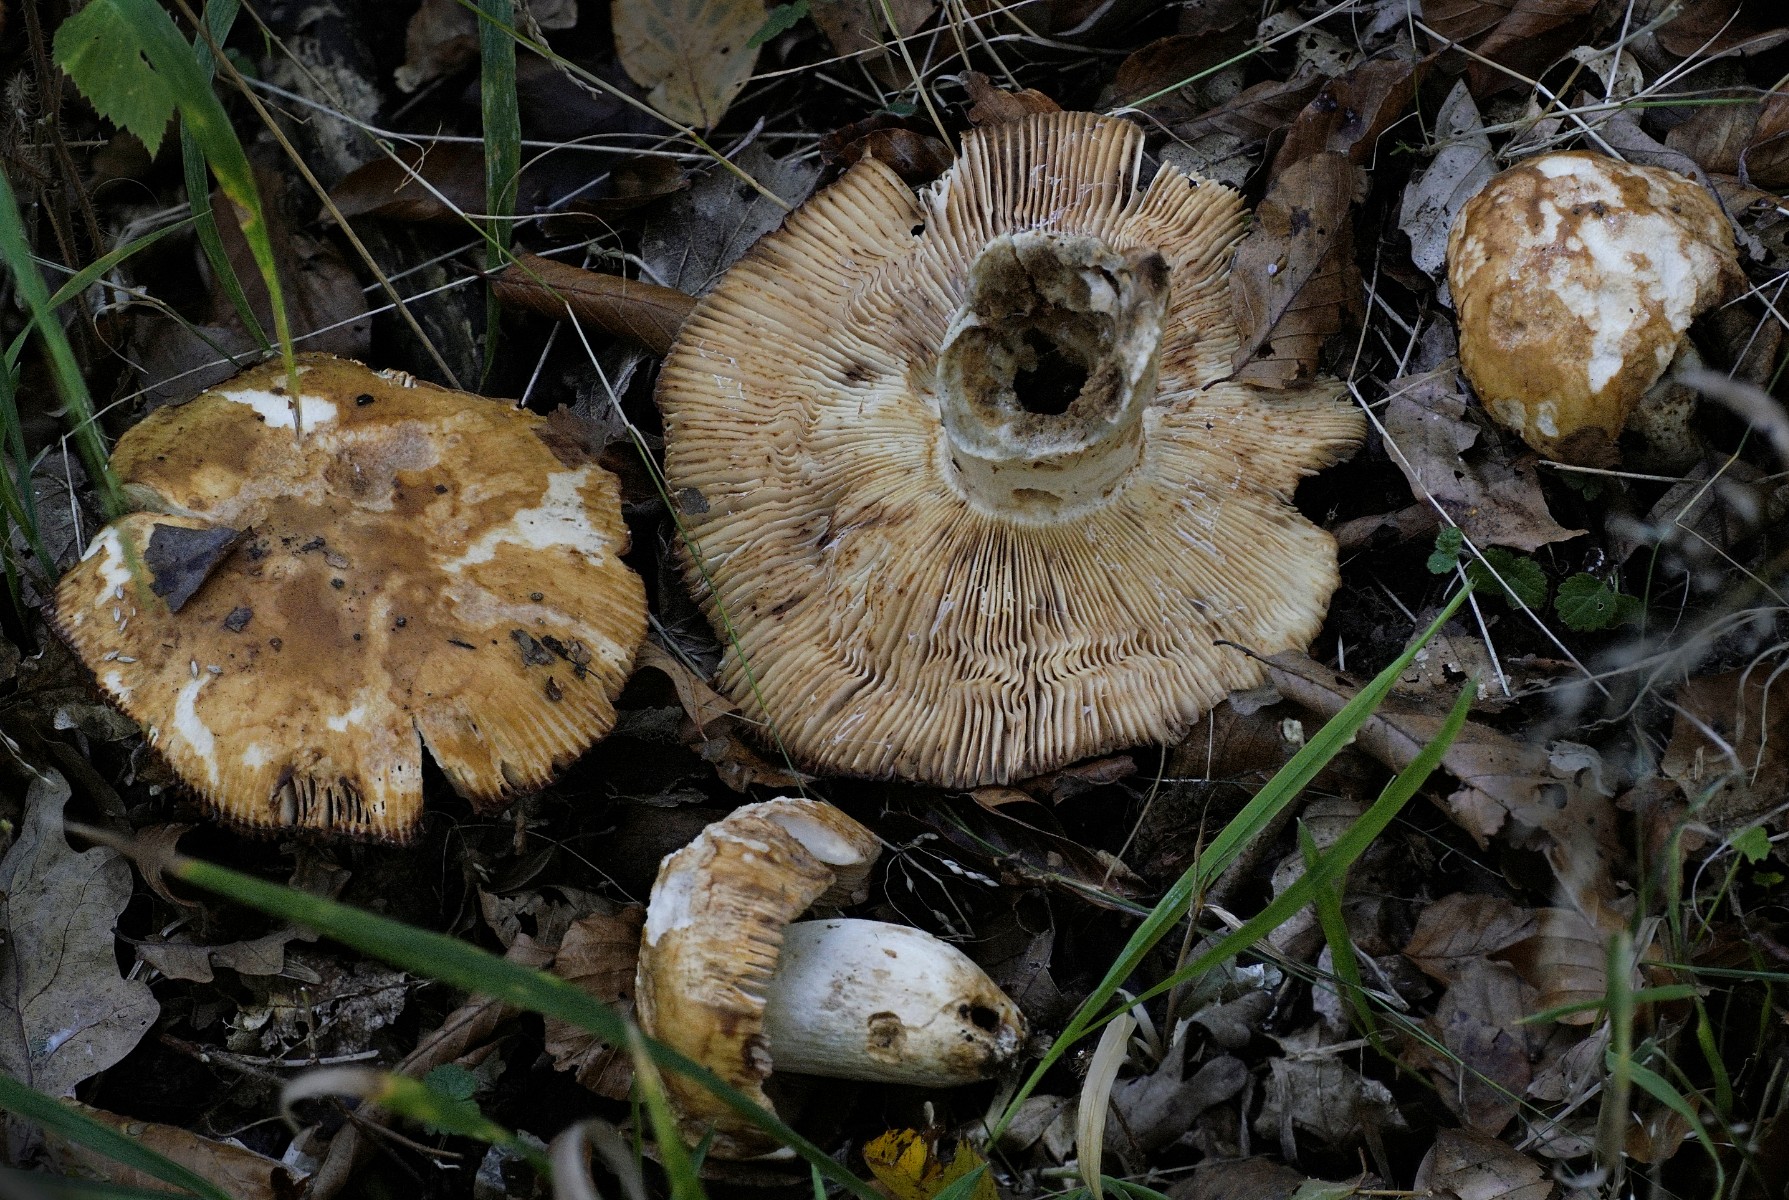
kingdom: Fungi
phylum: Basidiomycota
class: Agaricomycetes
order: Russulales
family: Russulaceae
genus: Russula
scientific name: Russula illota
